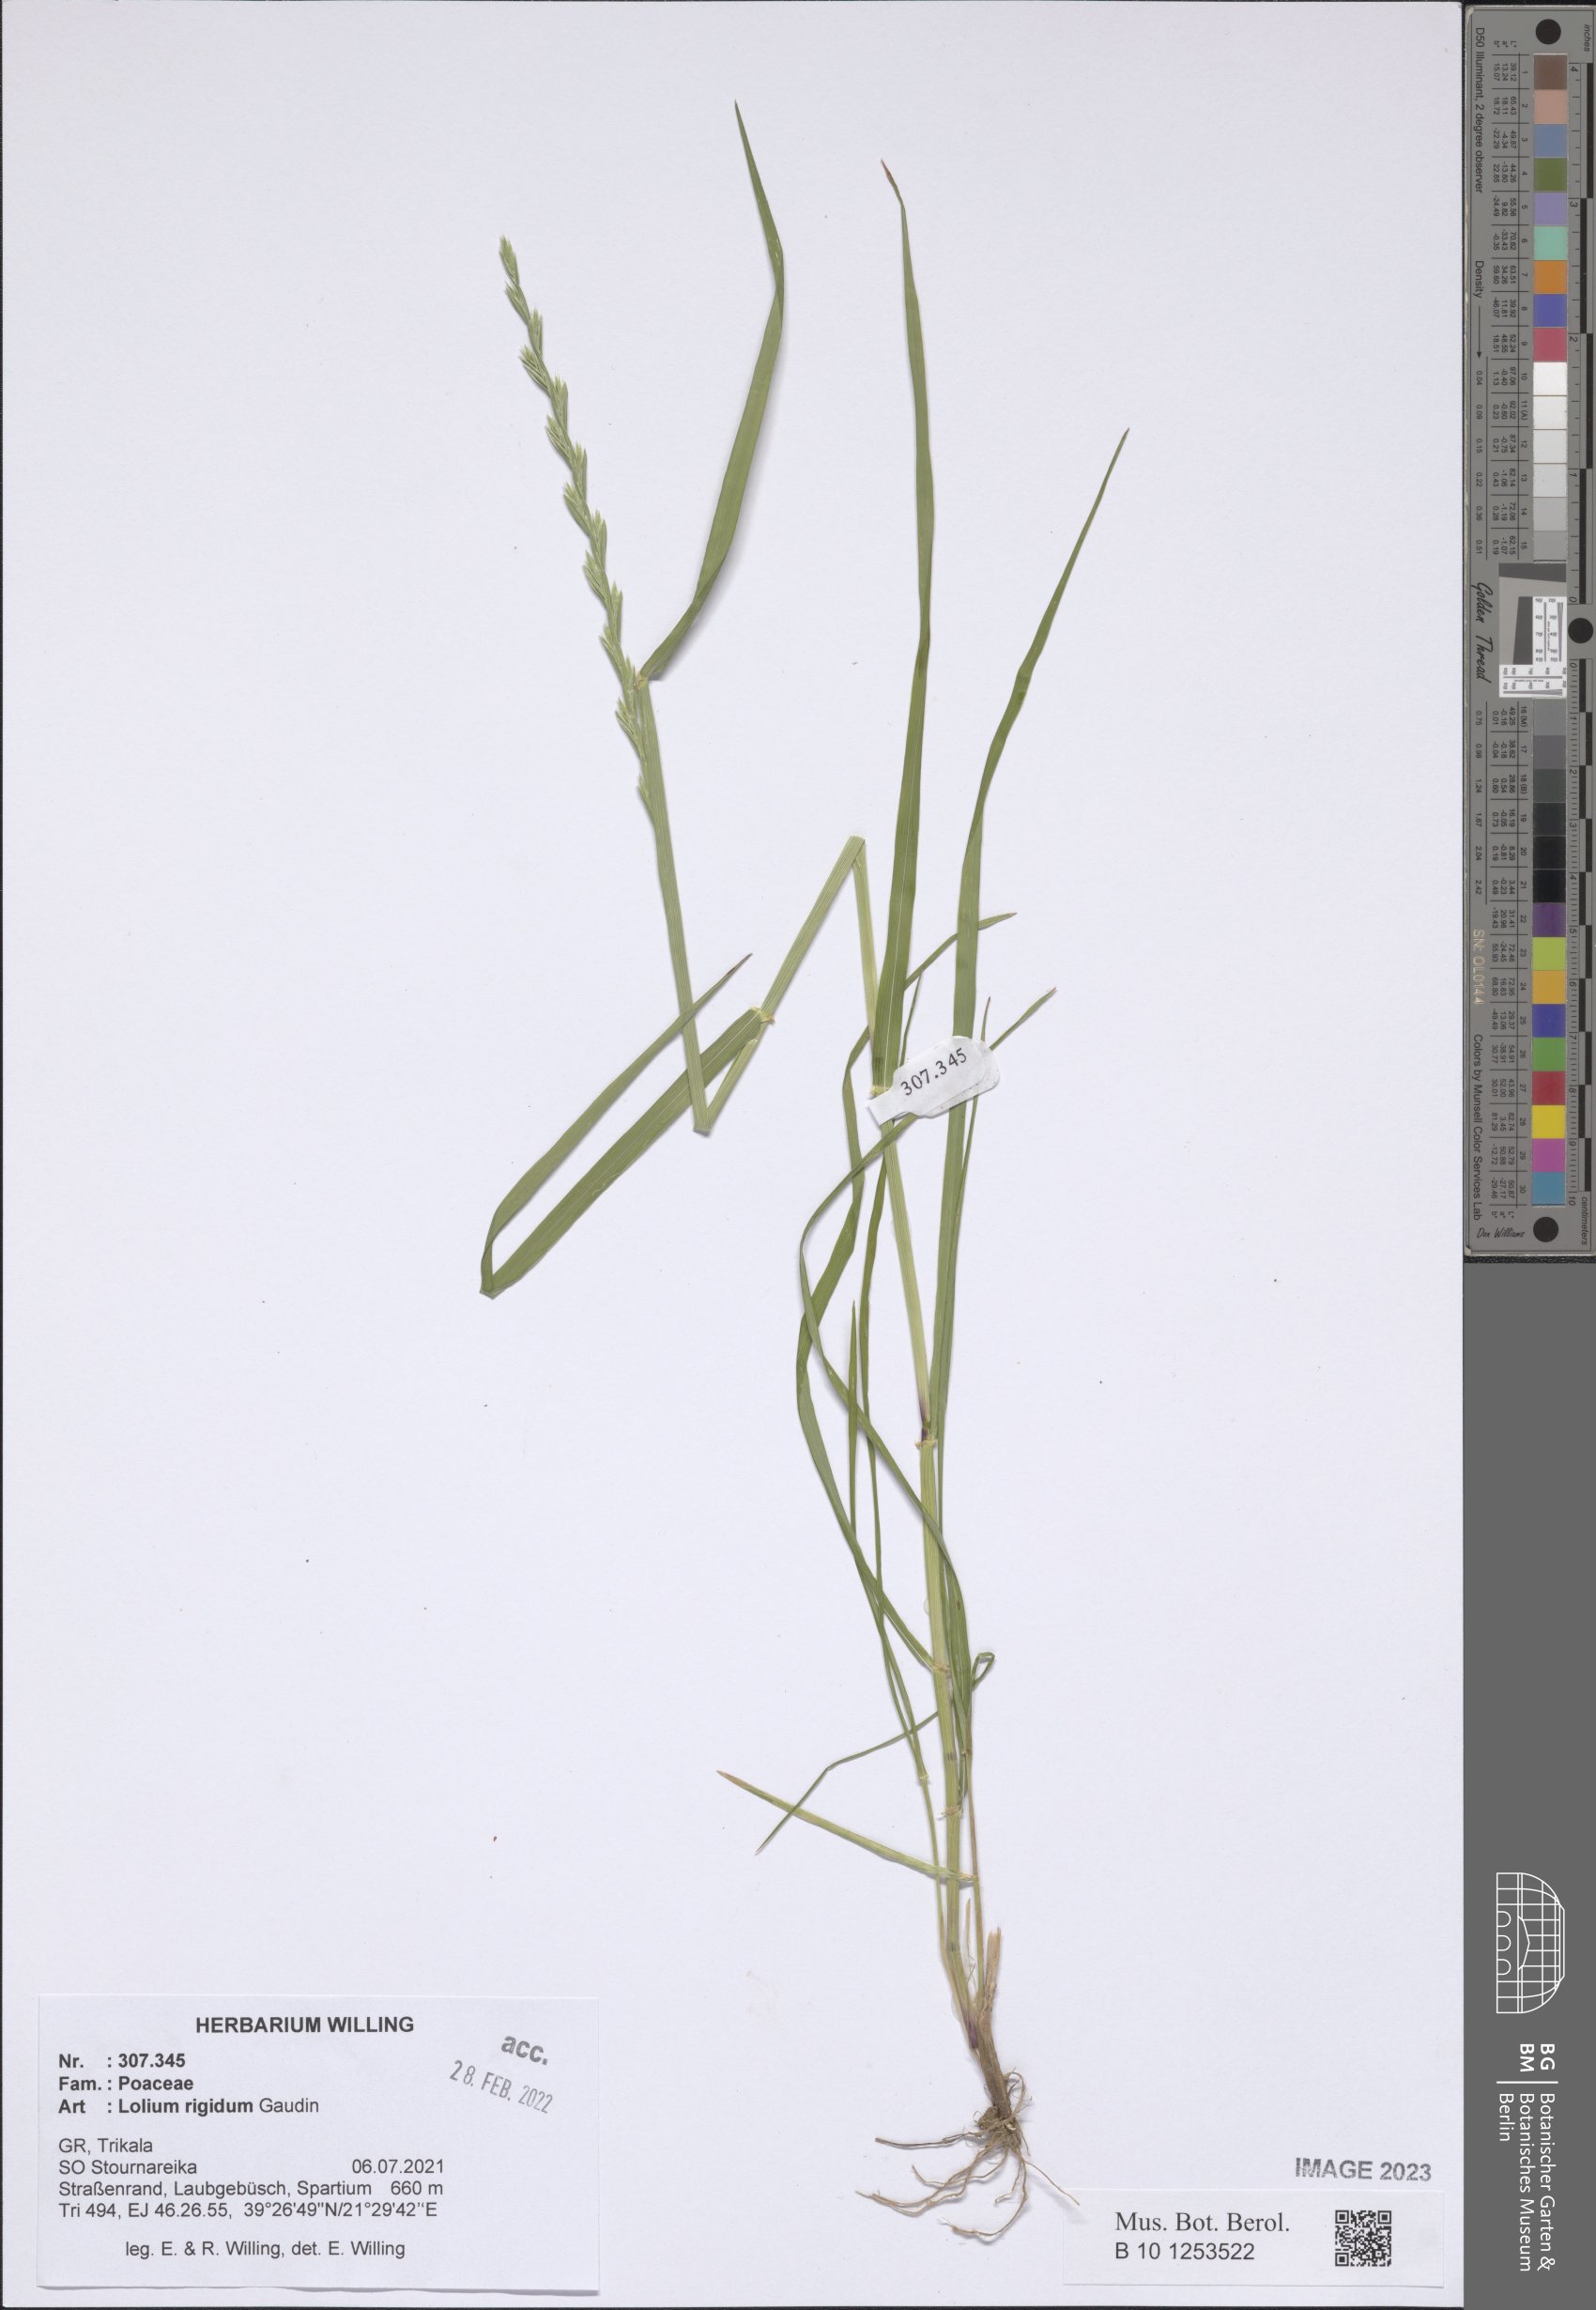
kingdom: Plantae
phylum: Tracheophyta
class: Liliopsida
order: Poales
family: Poaceae
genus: Lolium
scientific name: Lolium rigidum
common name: Wimmera ryegrass
